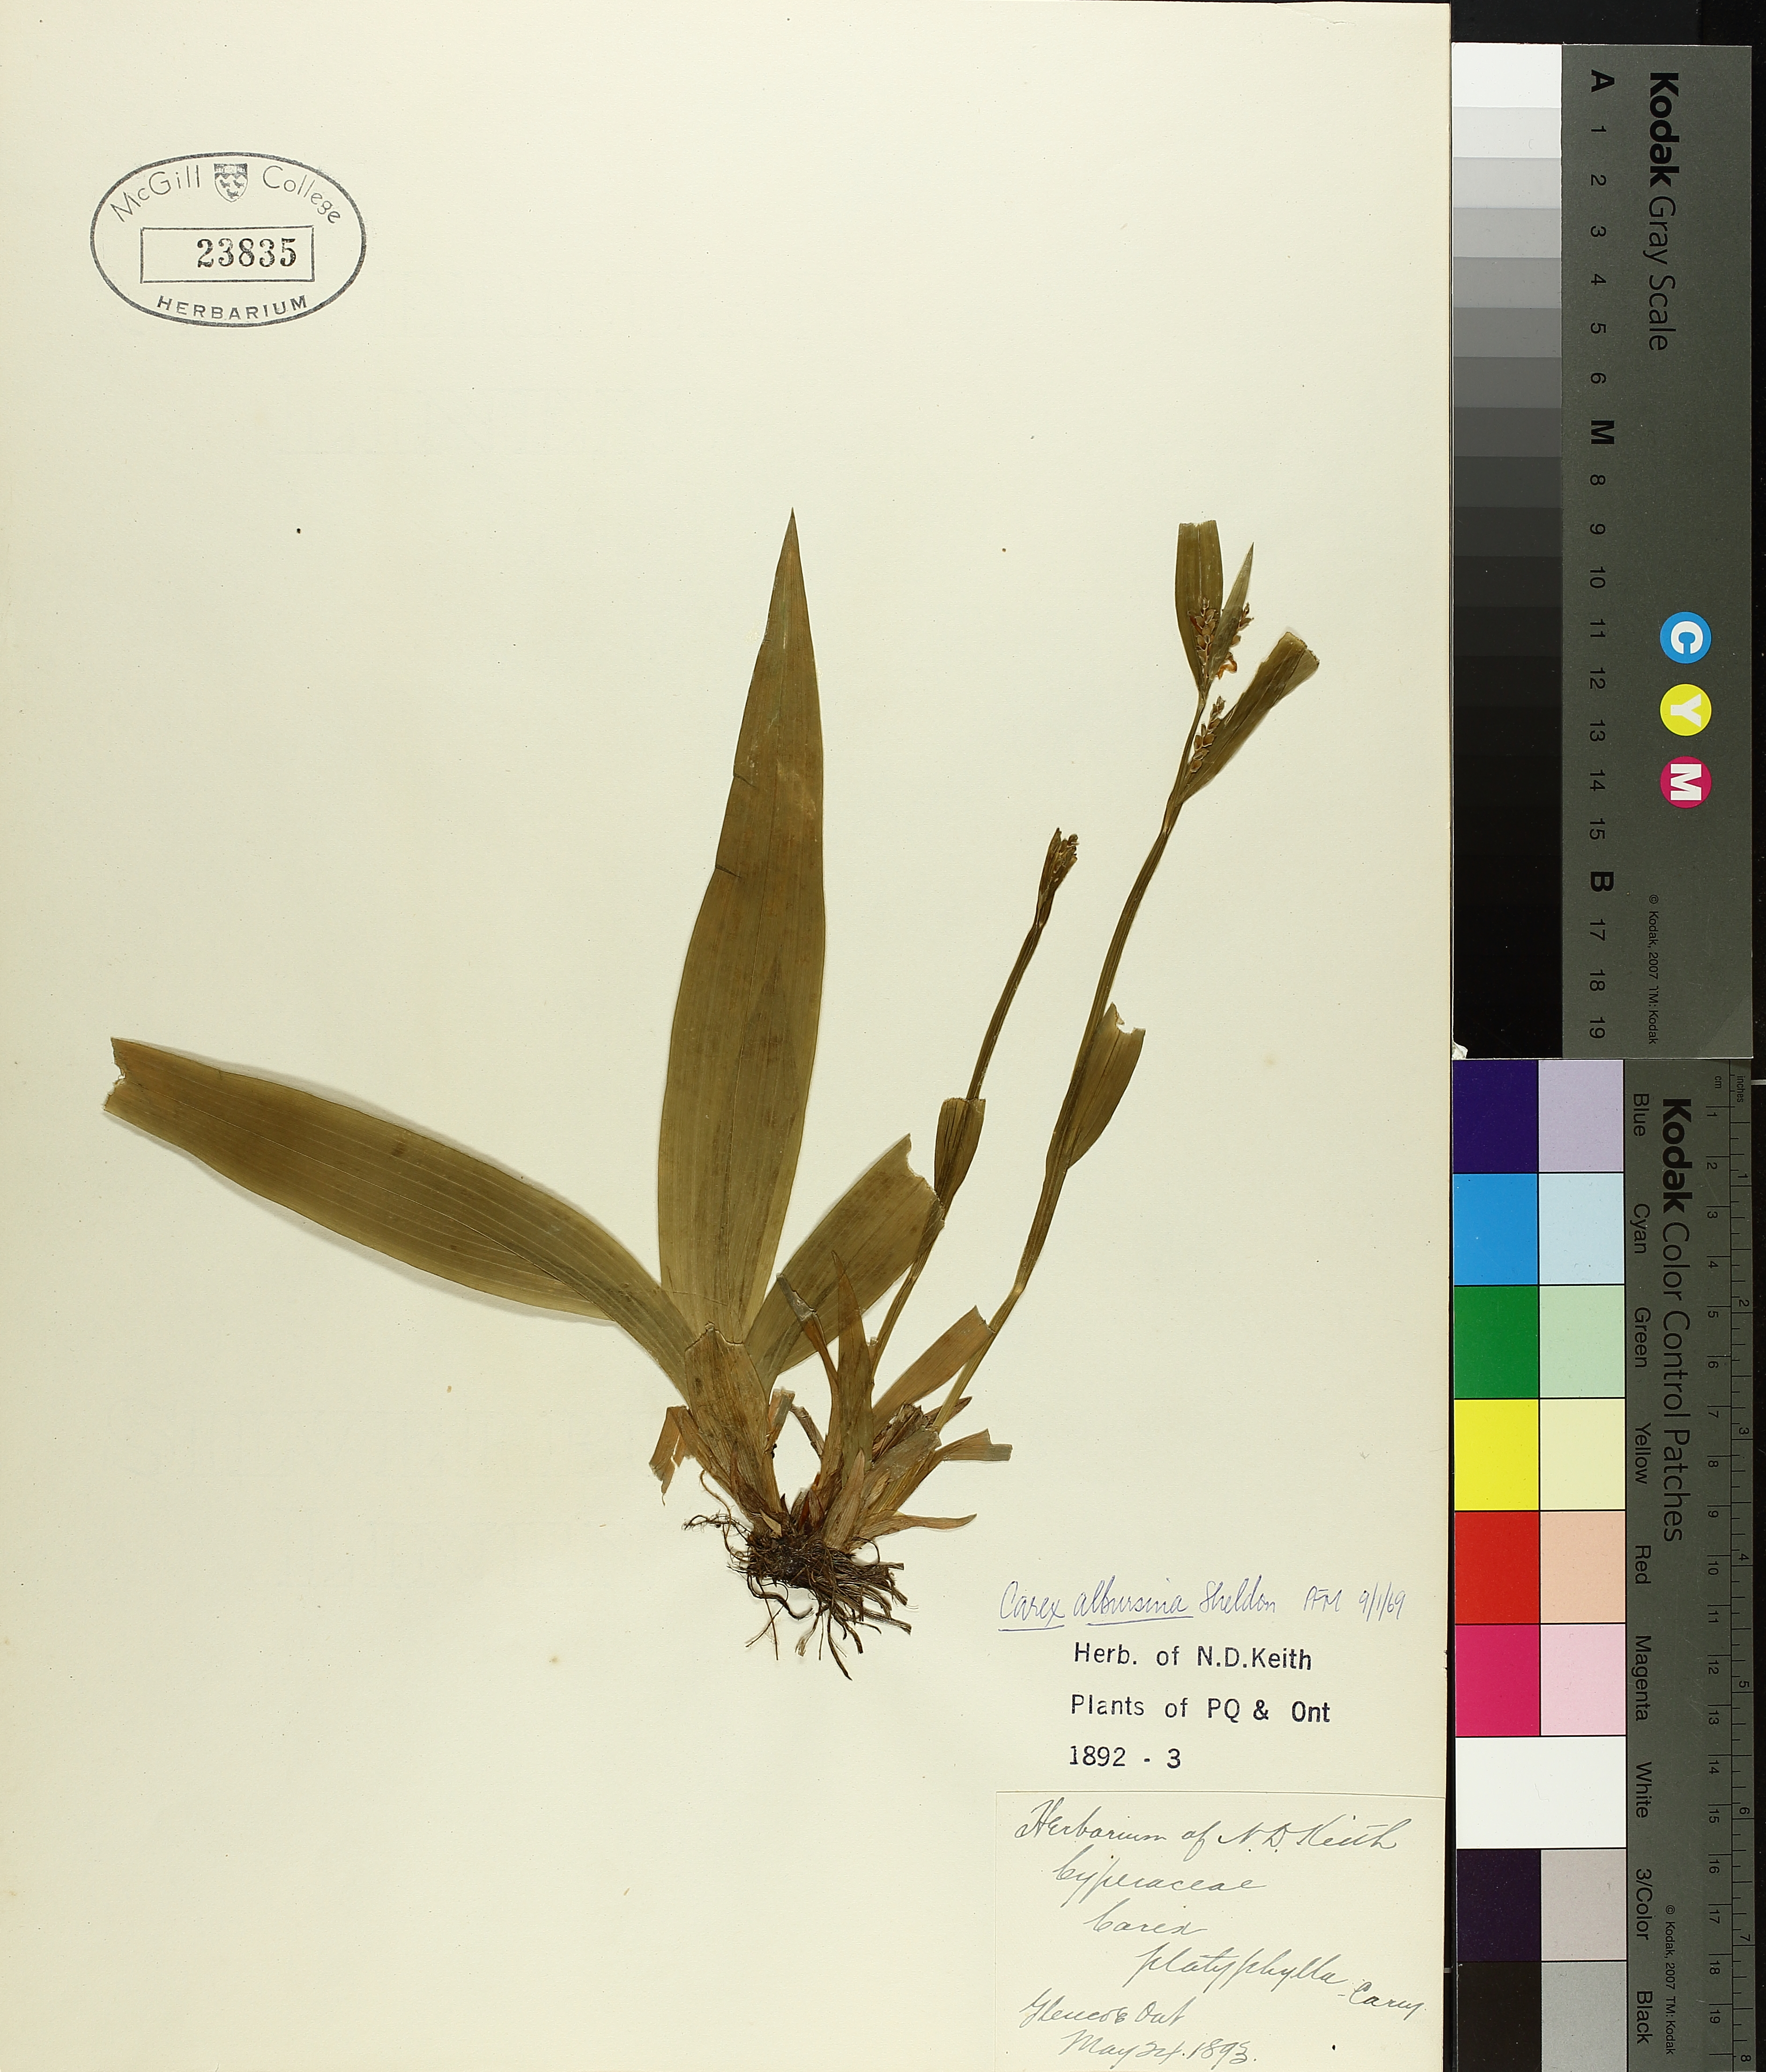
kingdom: Plantae
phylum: Tracheophyta
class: Liliopsida
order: Poales
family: Cyperaceae
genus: Carex
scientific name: Carex albursina
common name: Blunt-scale wood sedge
